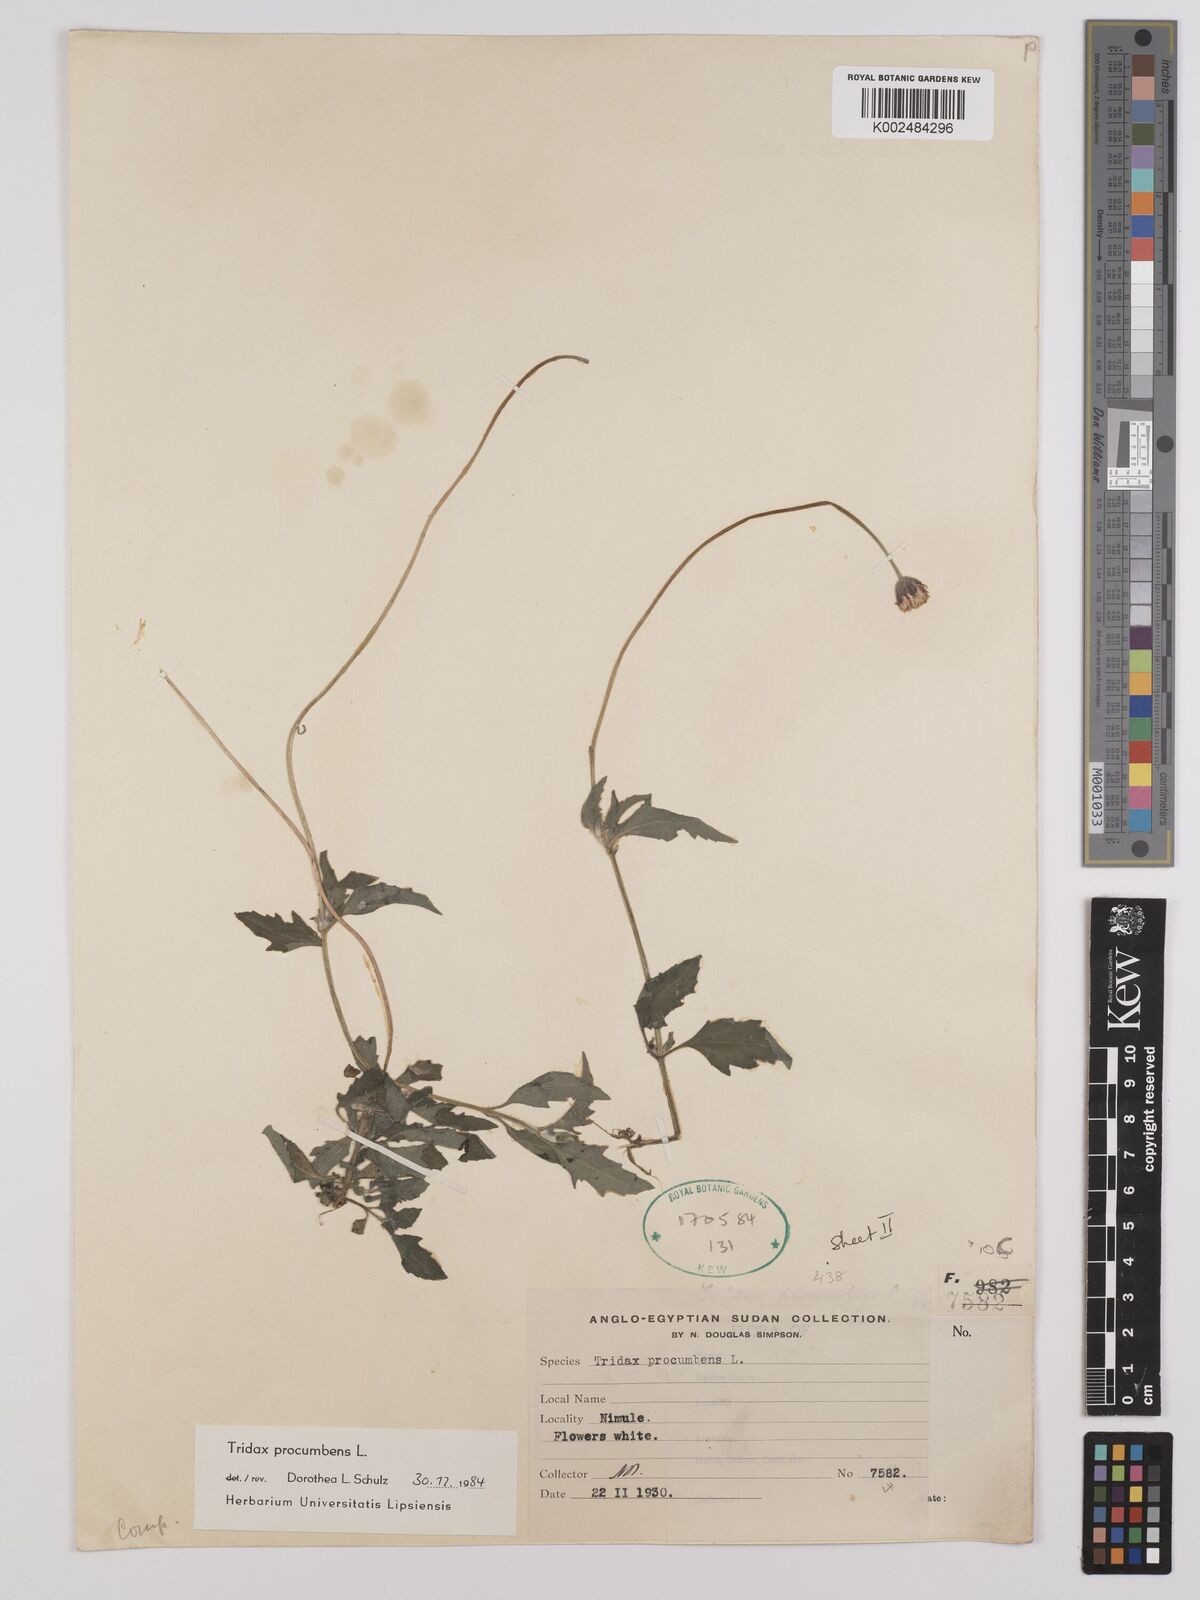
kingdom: Plantae
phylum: Tracheophyta
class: Magnoliopsida
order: Asterales
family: Asteraceae
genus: Tridax
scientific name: Tridax procumbens
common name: Coatbuttons
